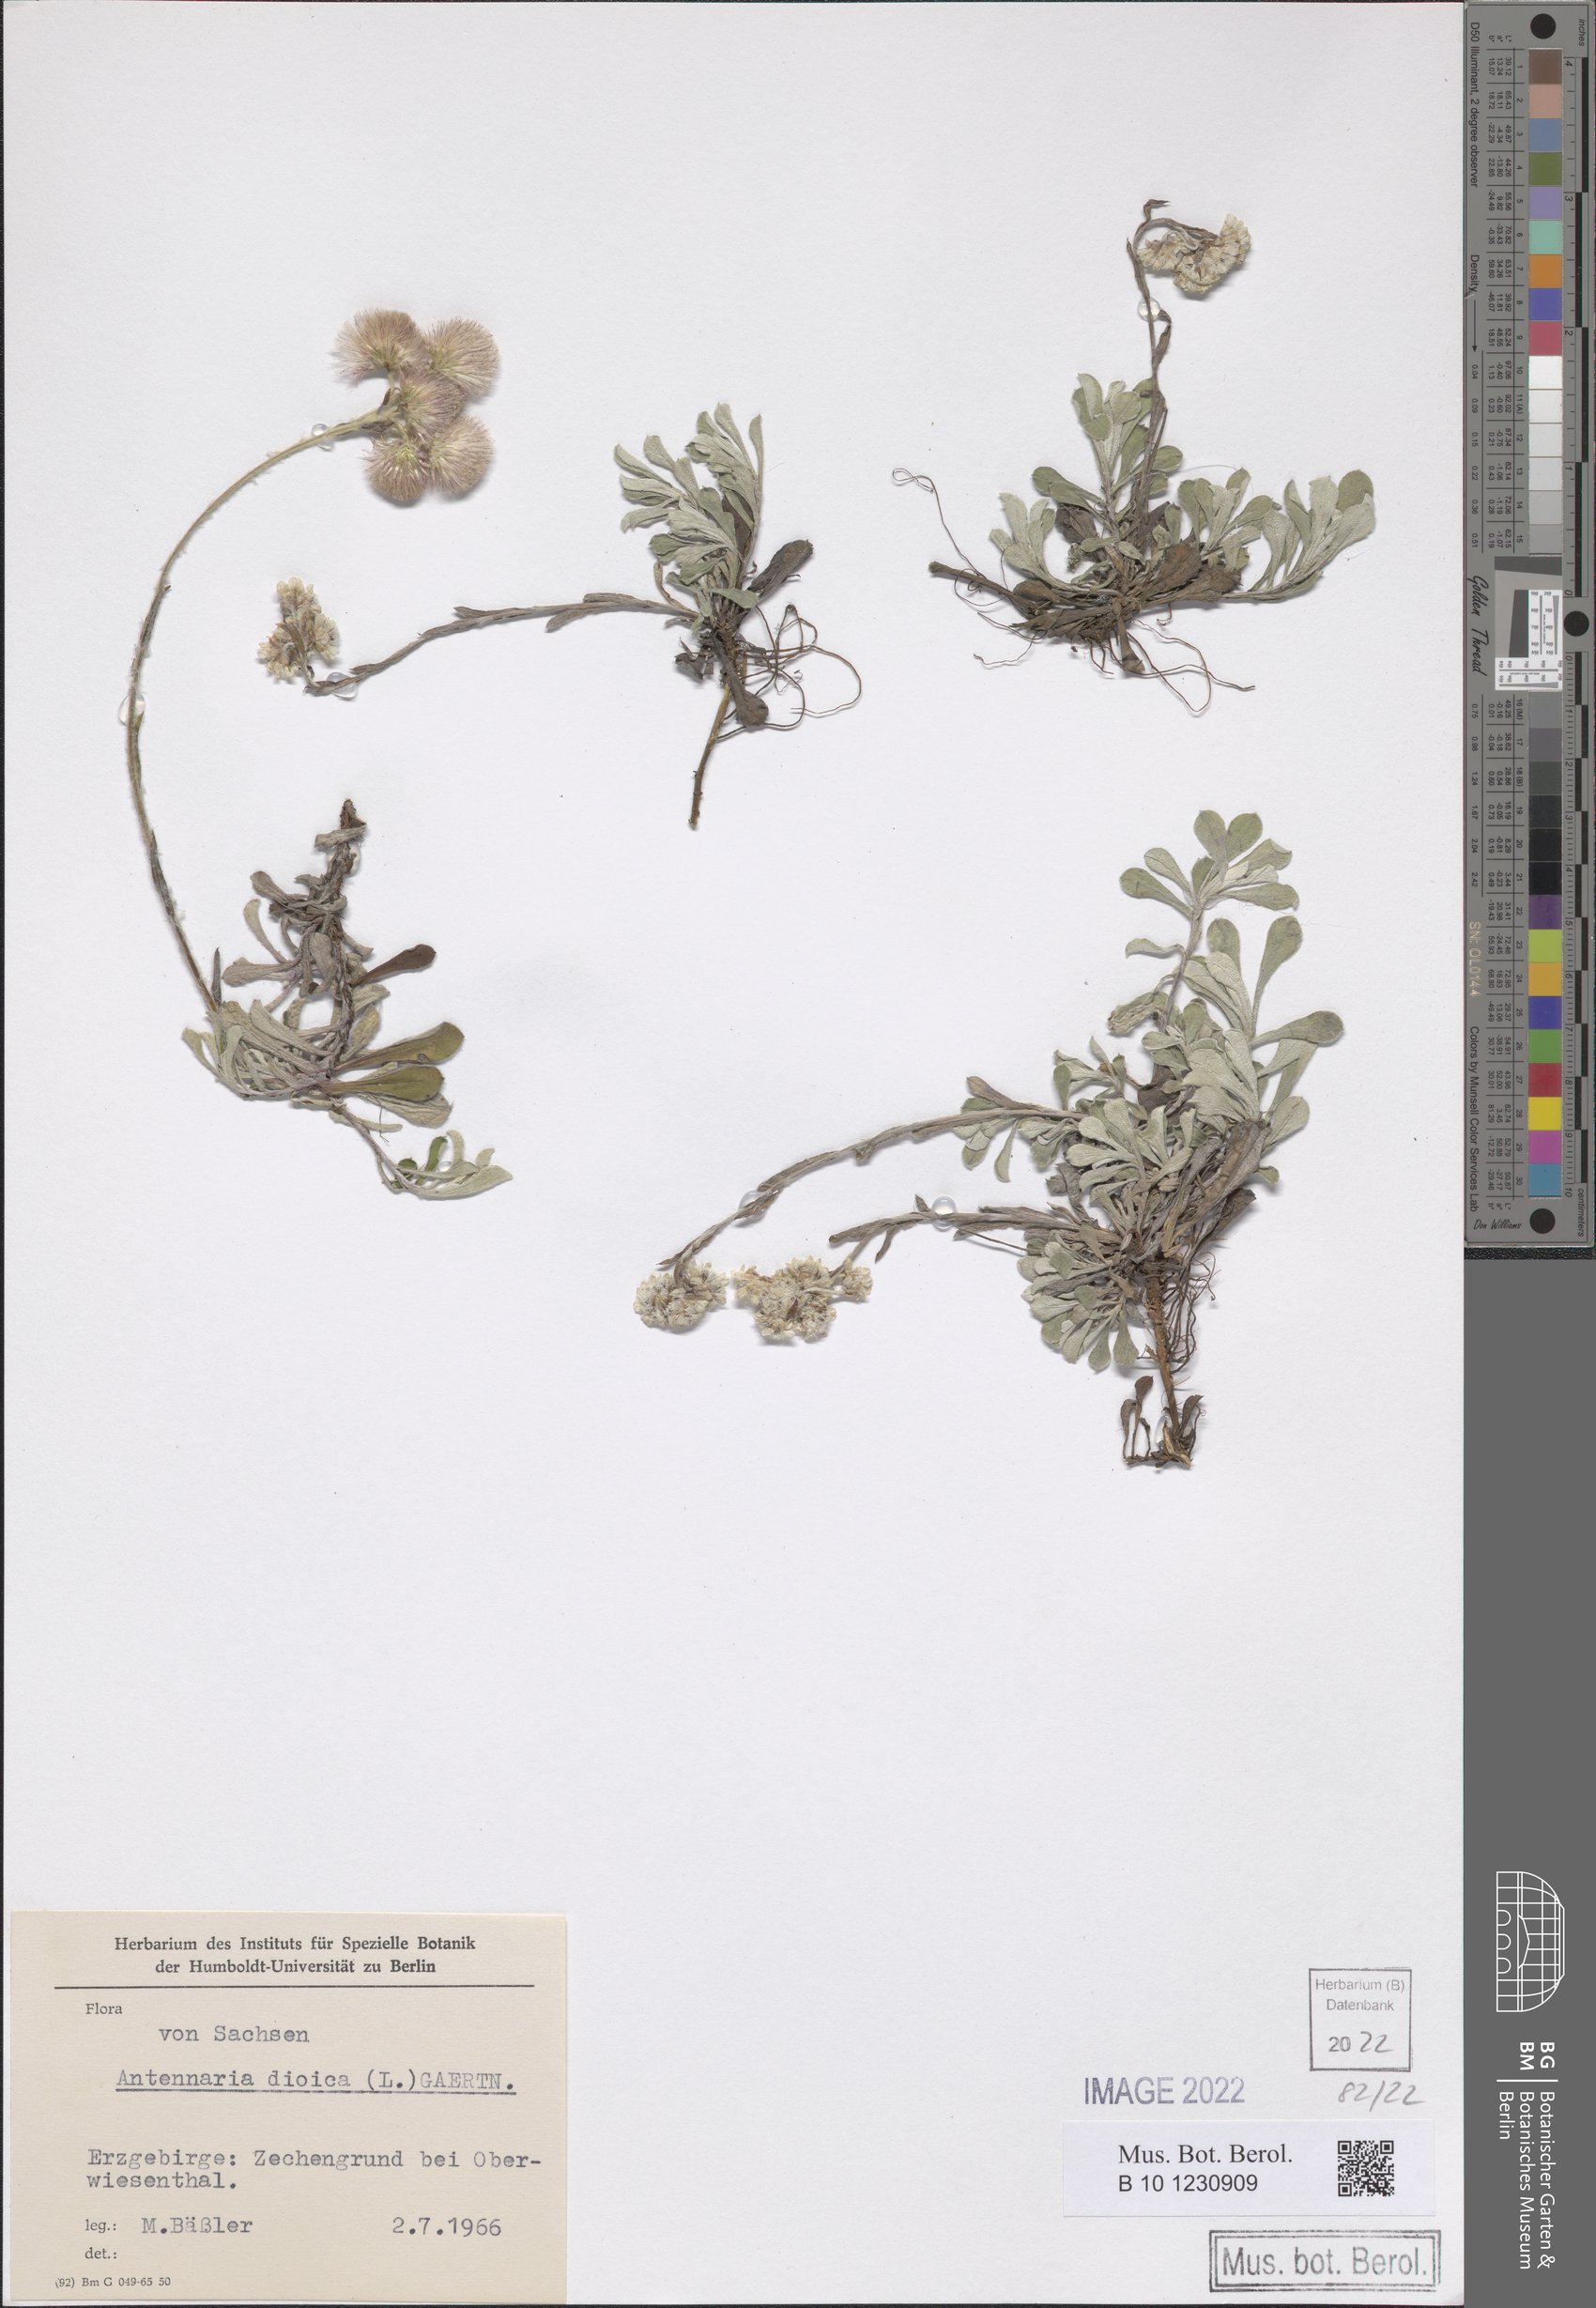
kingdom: Plantae
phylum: Tracheophyta
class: Magnoliopsida
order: Asterales
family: Asteraceae
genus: Antennaria
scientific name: Antennaria dioica
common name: Mountain everlasting
